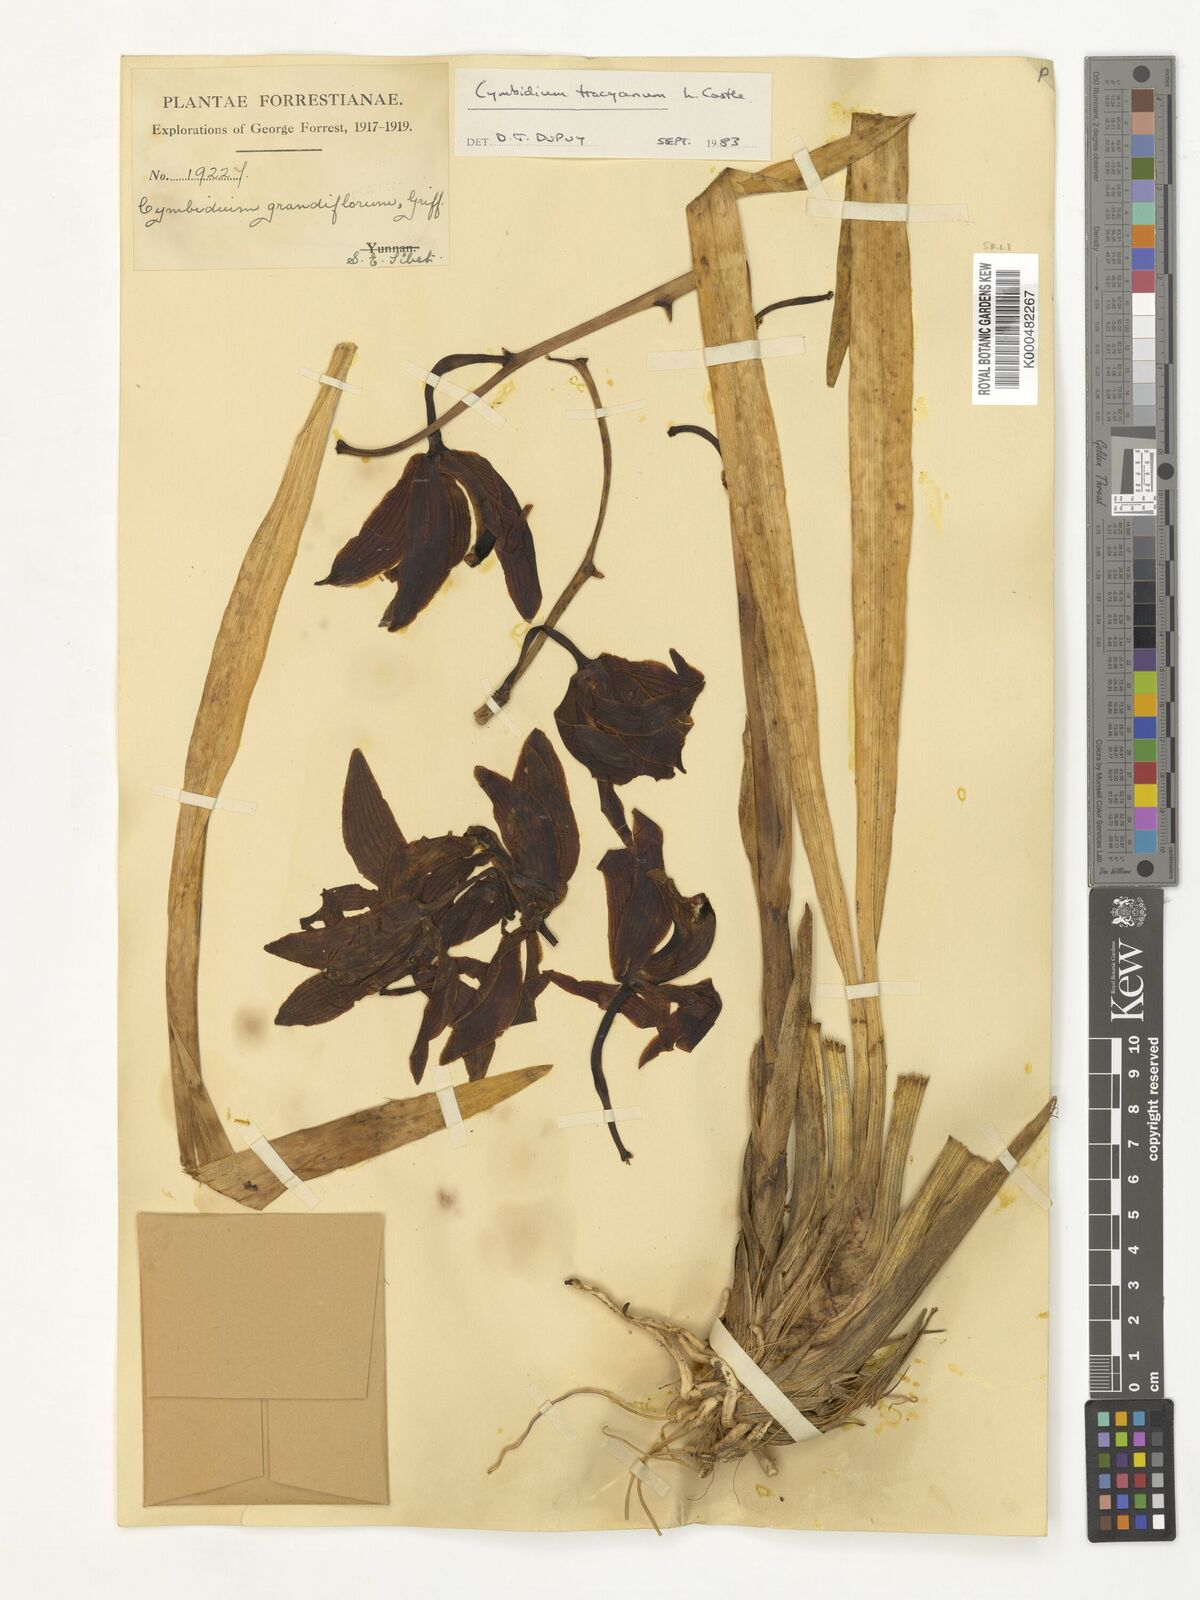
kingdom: Plantae
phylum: Tracheophyta
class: Liliopsida
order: Asparagales
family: Orchidaceae
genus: Cymbidium
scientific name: Cymbidium
